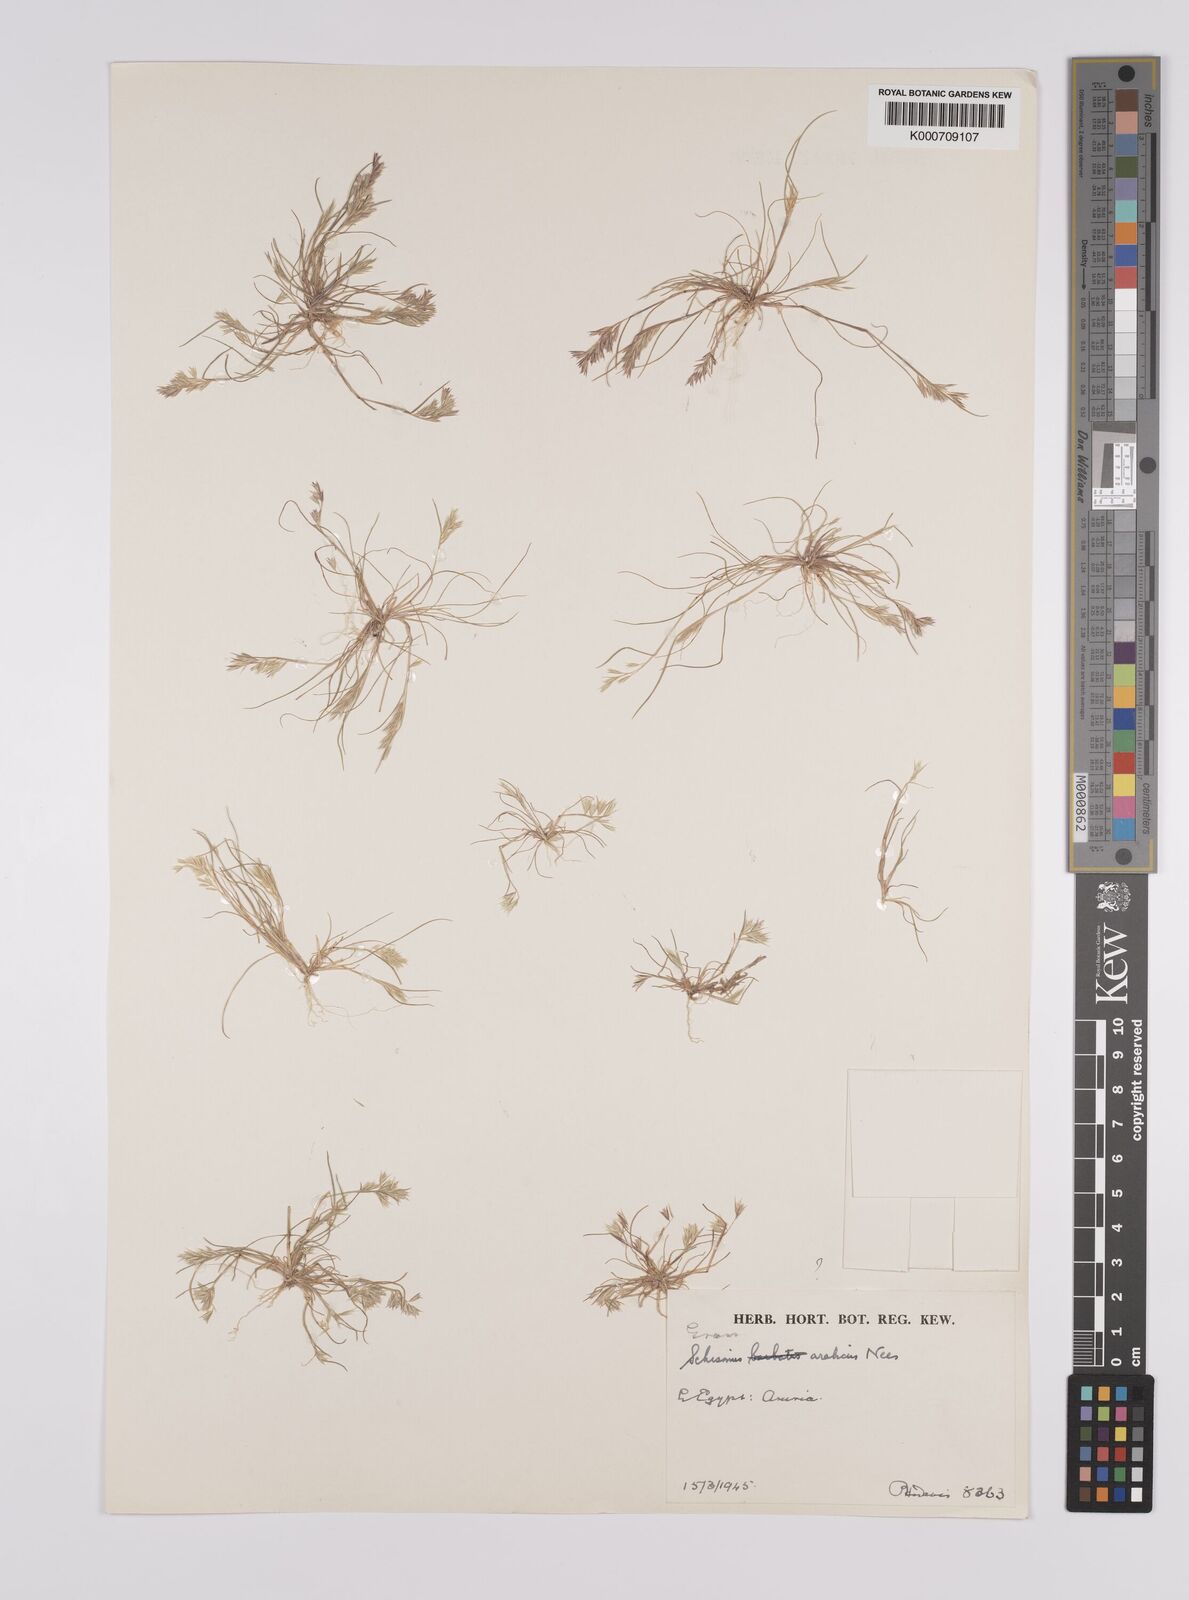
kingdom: Plantae
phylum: Tracheophyta
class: Liliopsida
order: Poales
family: Poaceae
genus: Schismus
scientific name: Schismus arabicus
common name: Arabian schismus
